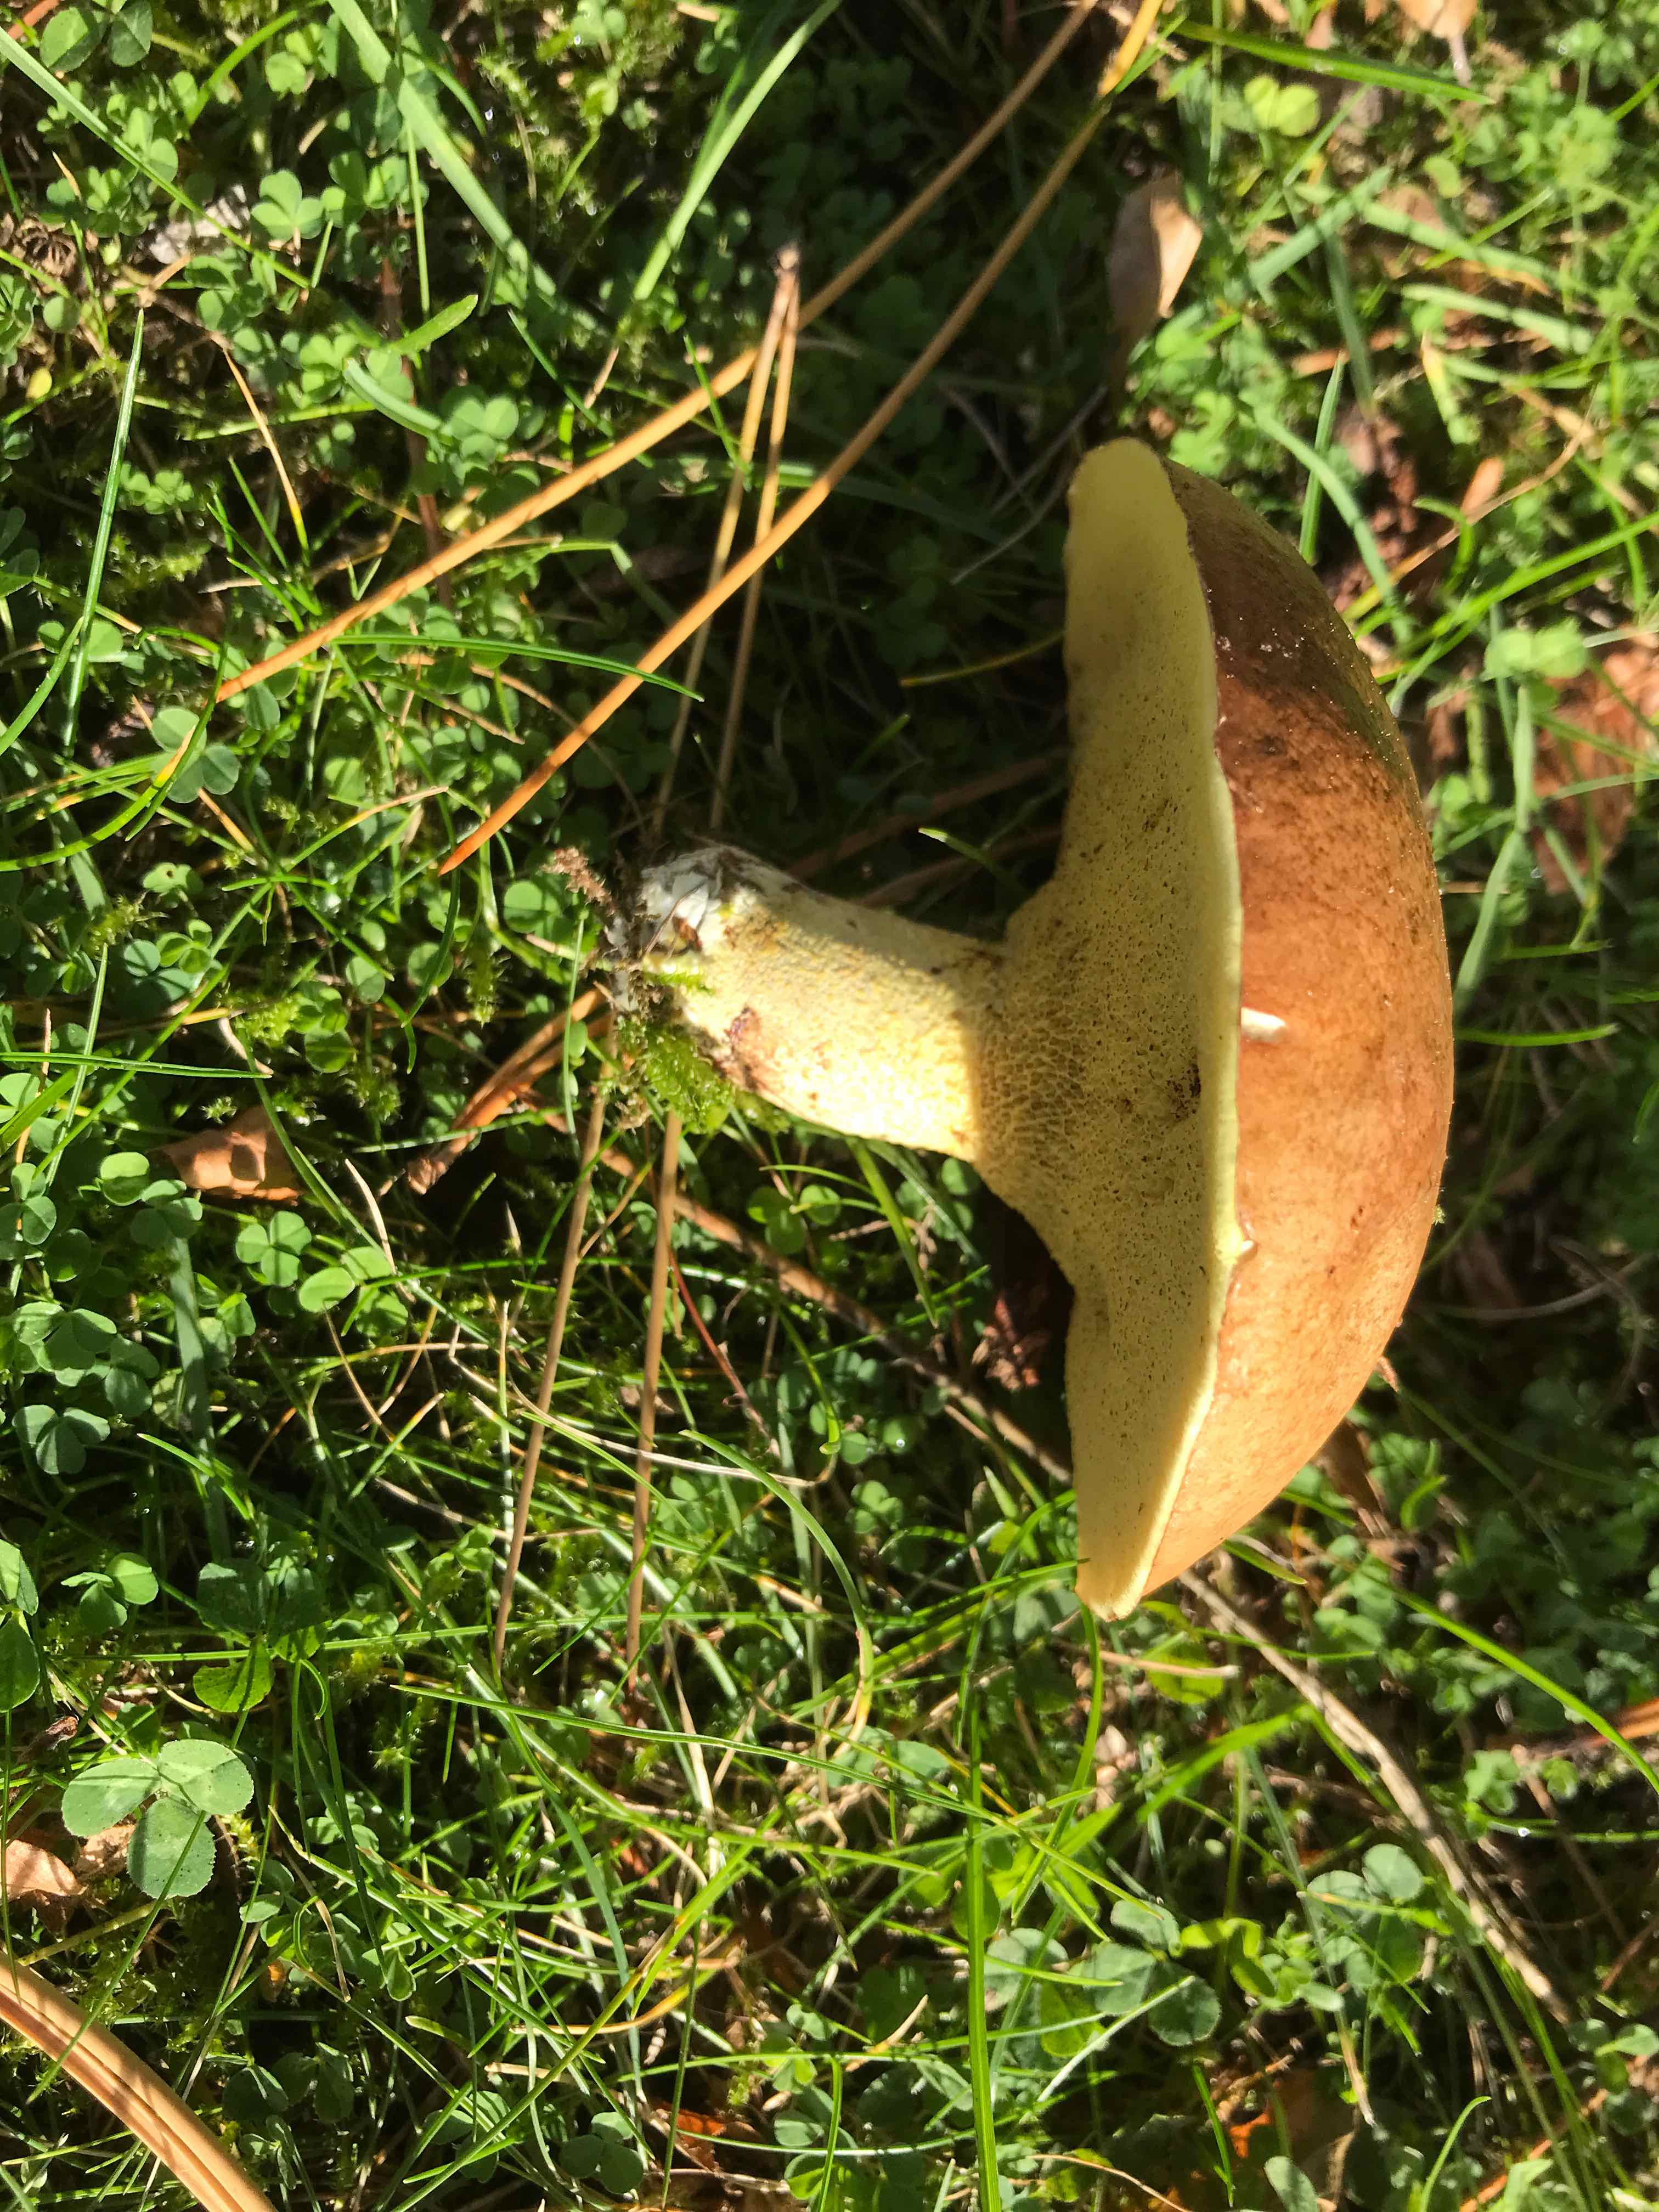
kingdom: Fungi
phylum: Basidiomycota
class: Agaricomycetes
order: Boletales
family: Suillaceae
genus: Suillus
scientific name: Suillus granulatus
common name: kornet slimrørhat
